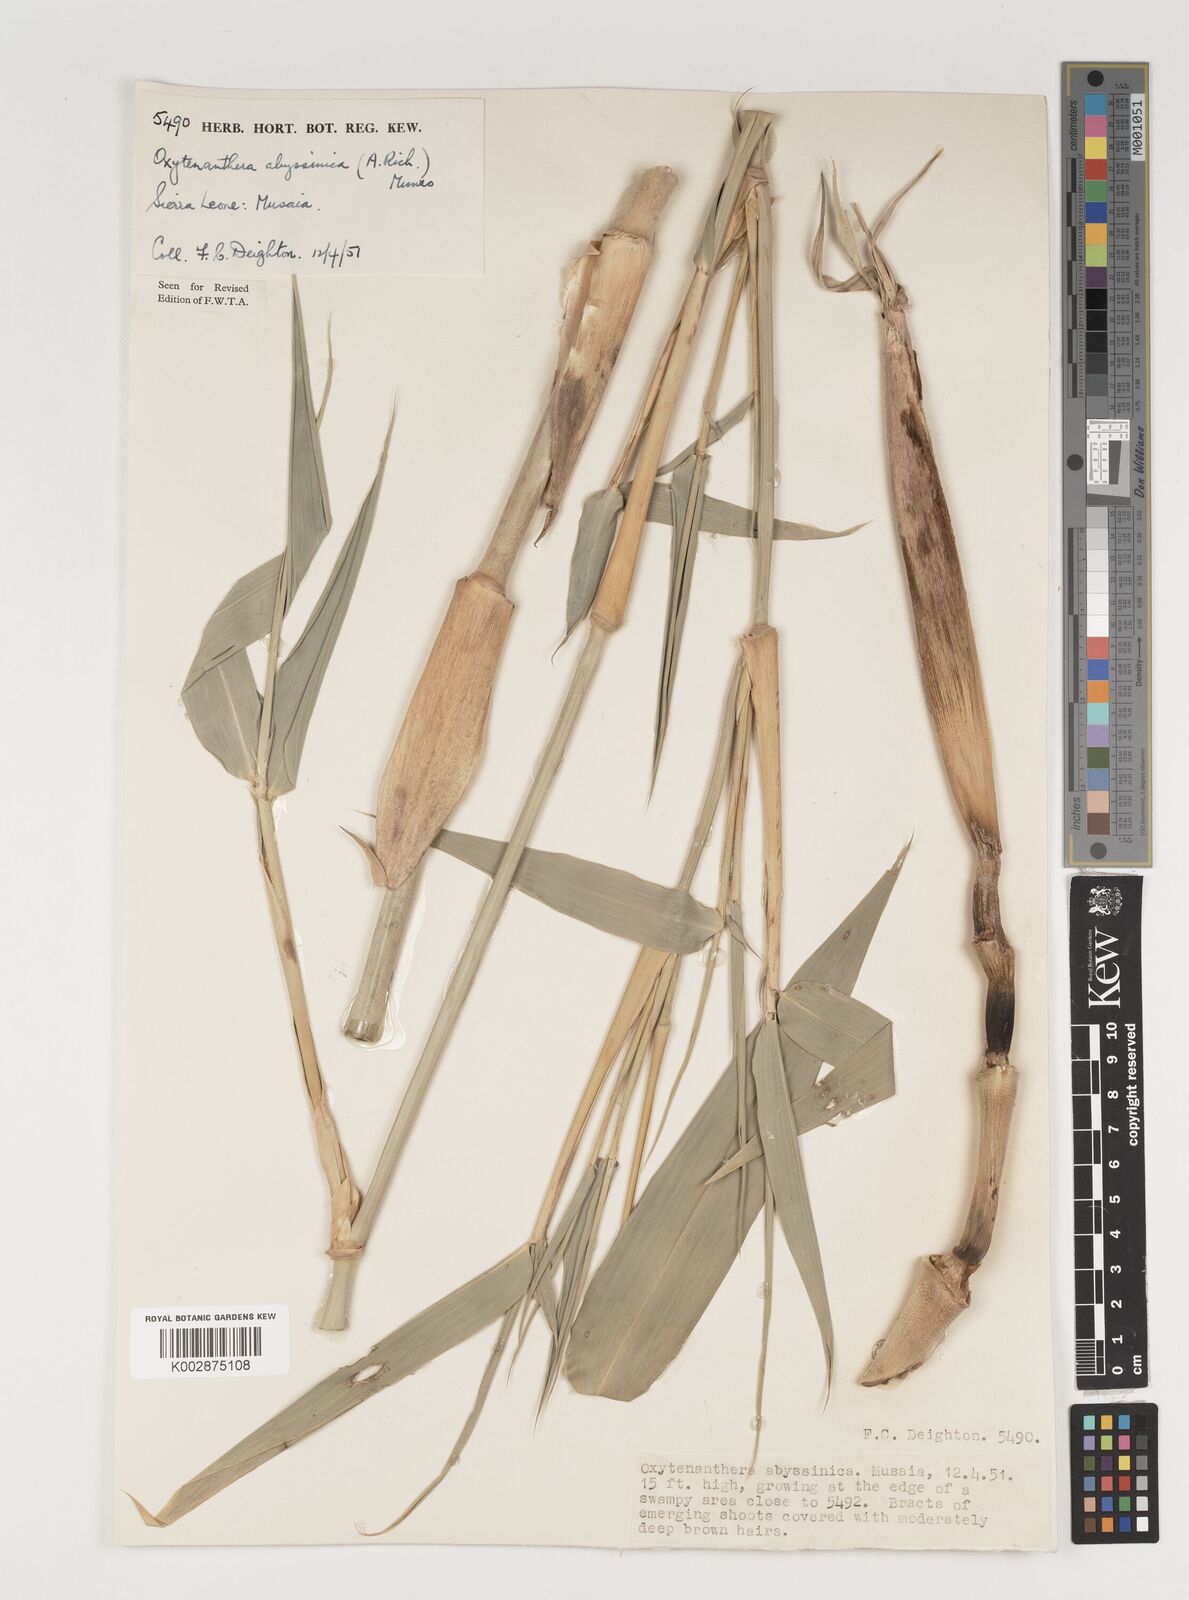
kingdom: Plantae
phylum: Tracheophyta
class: Liliopsida
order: Poales
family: Poaceae
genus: Oxytenanthera
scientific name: Oxytenanthera abyssinica
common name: Wine bamboo
